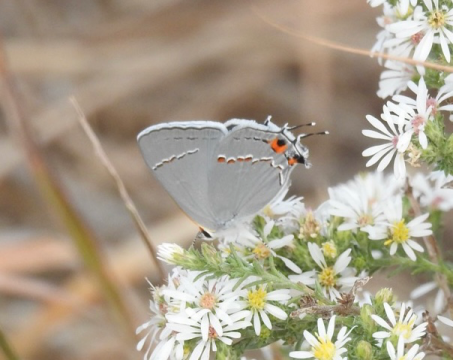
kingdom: Animalia
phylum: Arthropoda
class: Insecta
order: Lepidoptera
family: Lycaenidae
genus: Strymon
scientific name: Strymon melinus
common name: Gray Hairstreak
